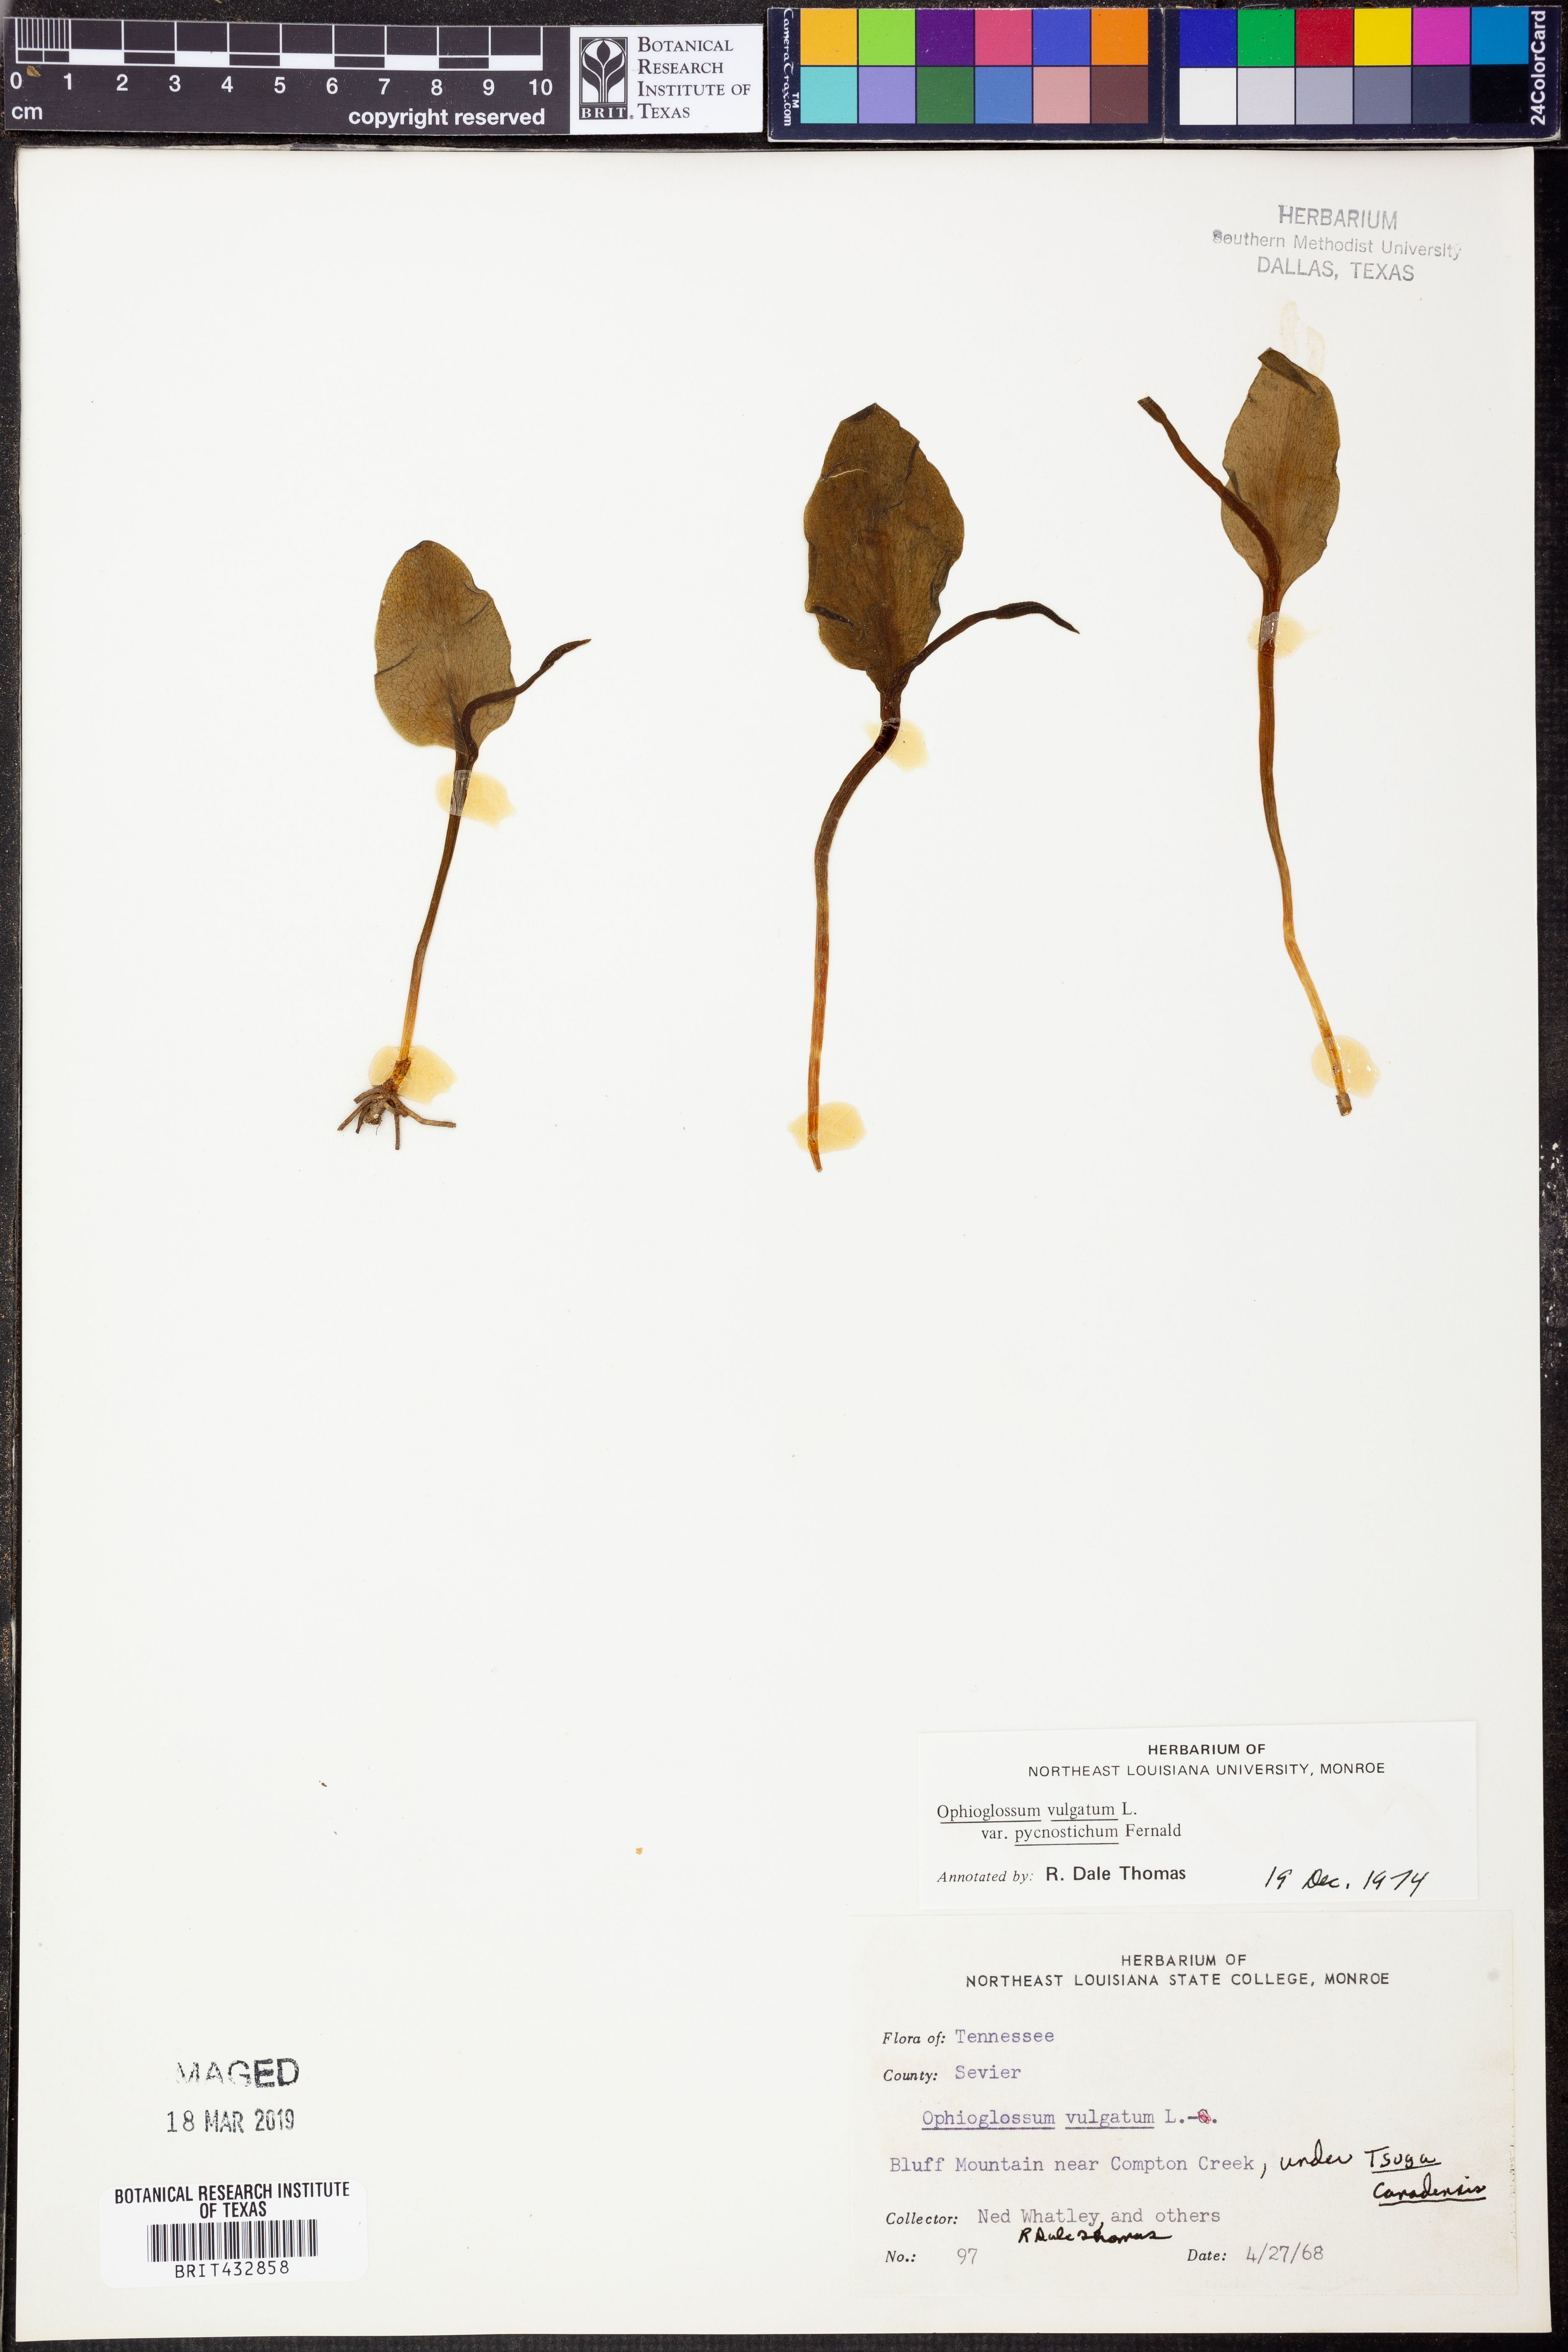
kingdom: Plantae
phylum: Tracheophyta
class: Polypodiopsida
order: Ophioglossales
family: Ophioglossaceae
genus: Ophioglossum
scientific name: Ophioglossum vulgatum
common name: Adder's-tongue
